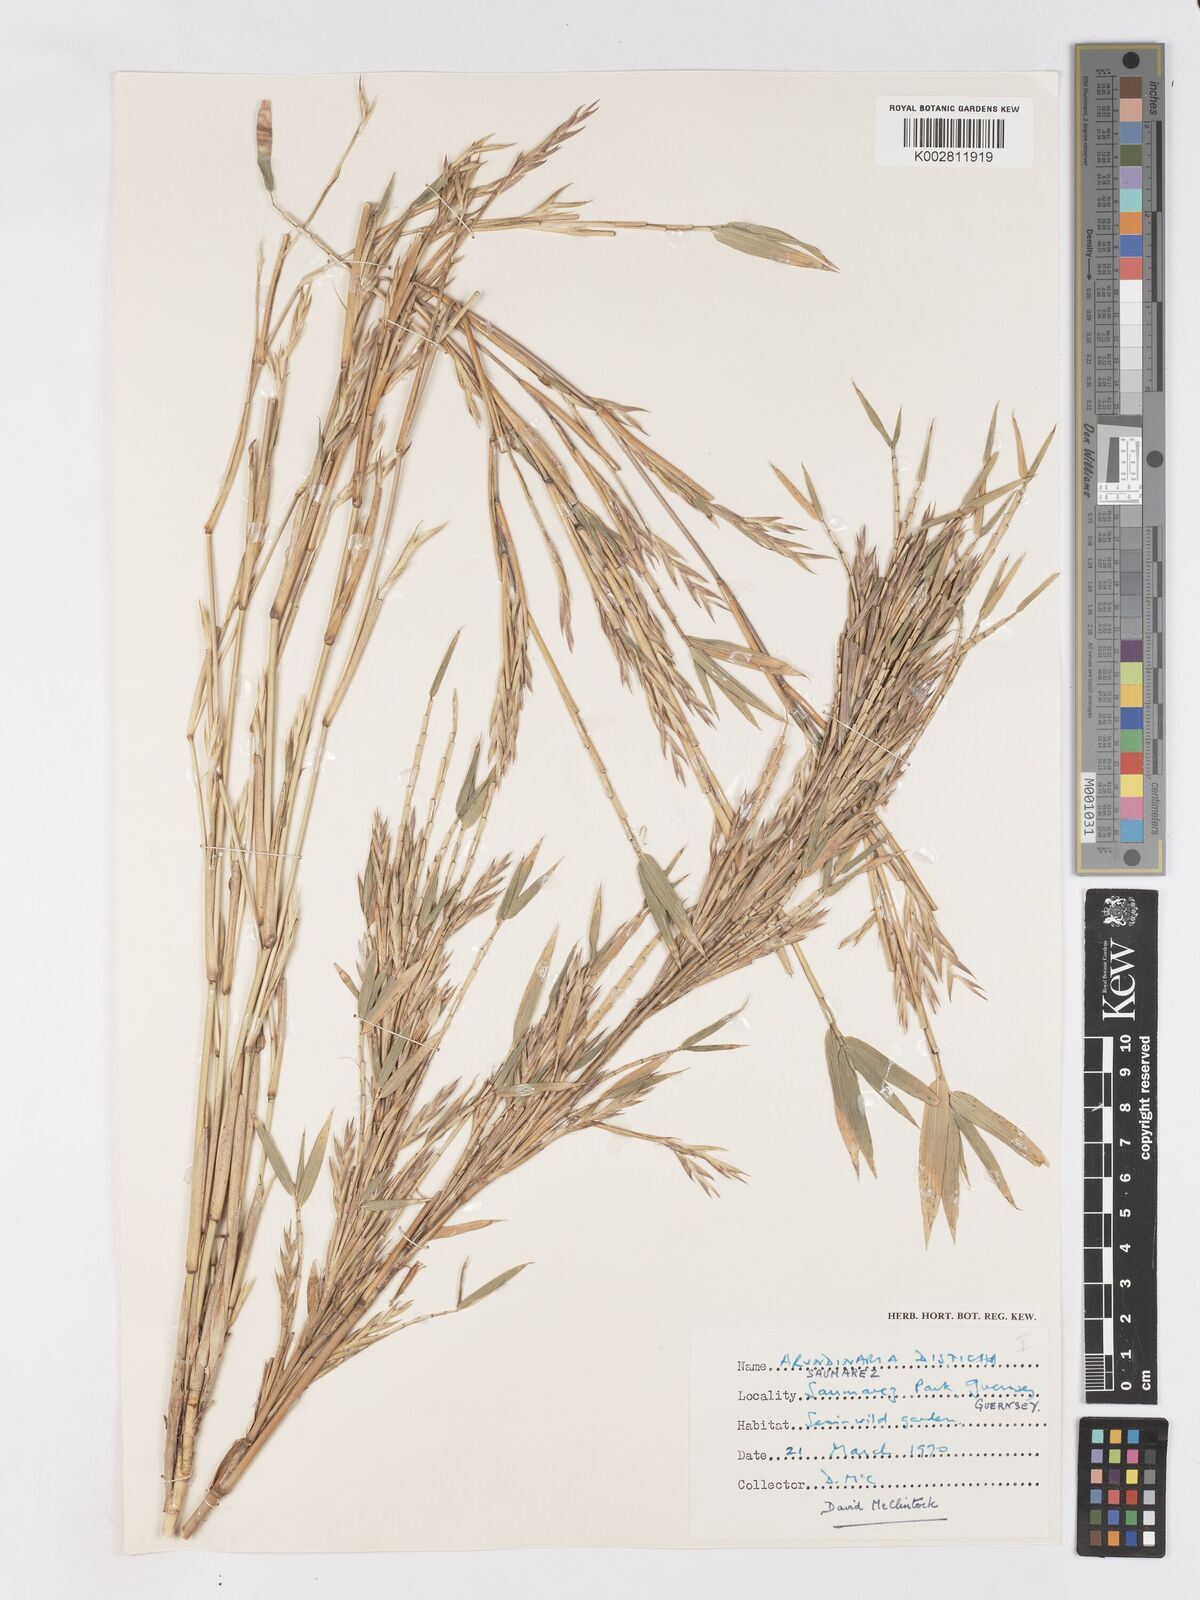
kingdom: Plantae
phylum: Tracheophyta
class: Liliopsida
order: Poales
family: Poaceae
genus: Pleioblastus
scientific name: Pleioblastus distichus
